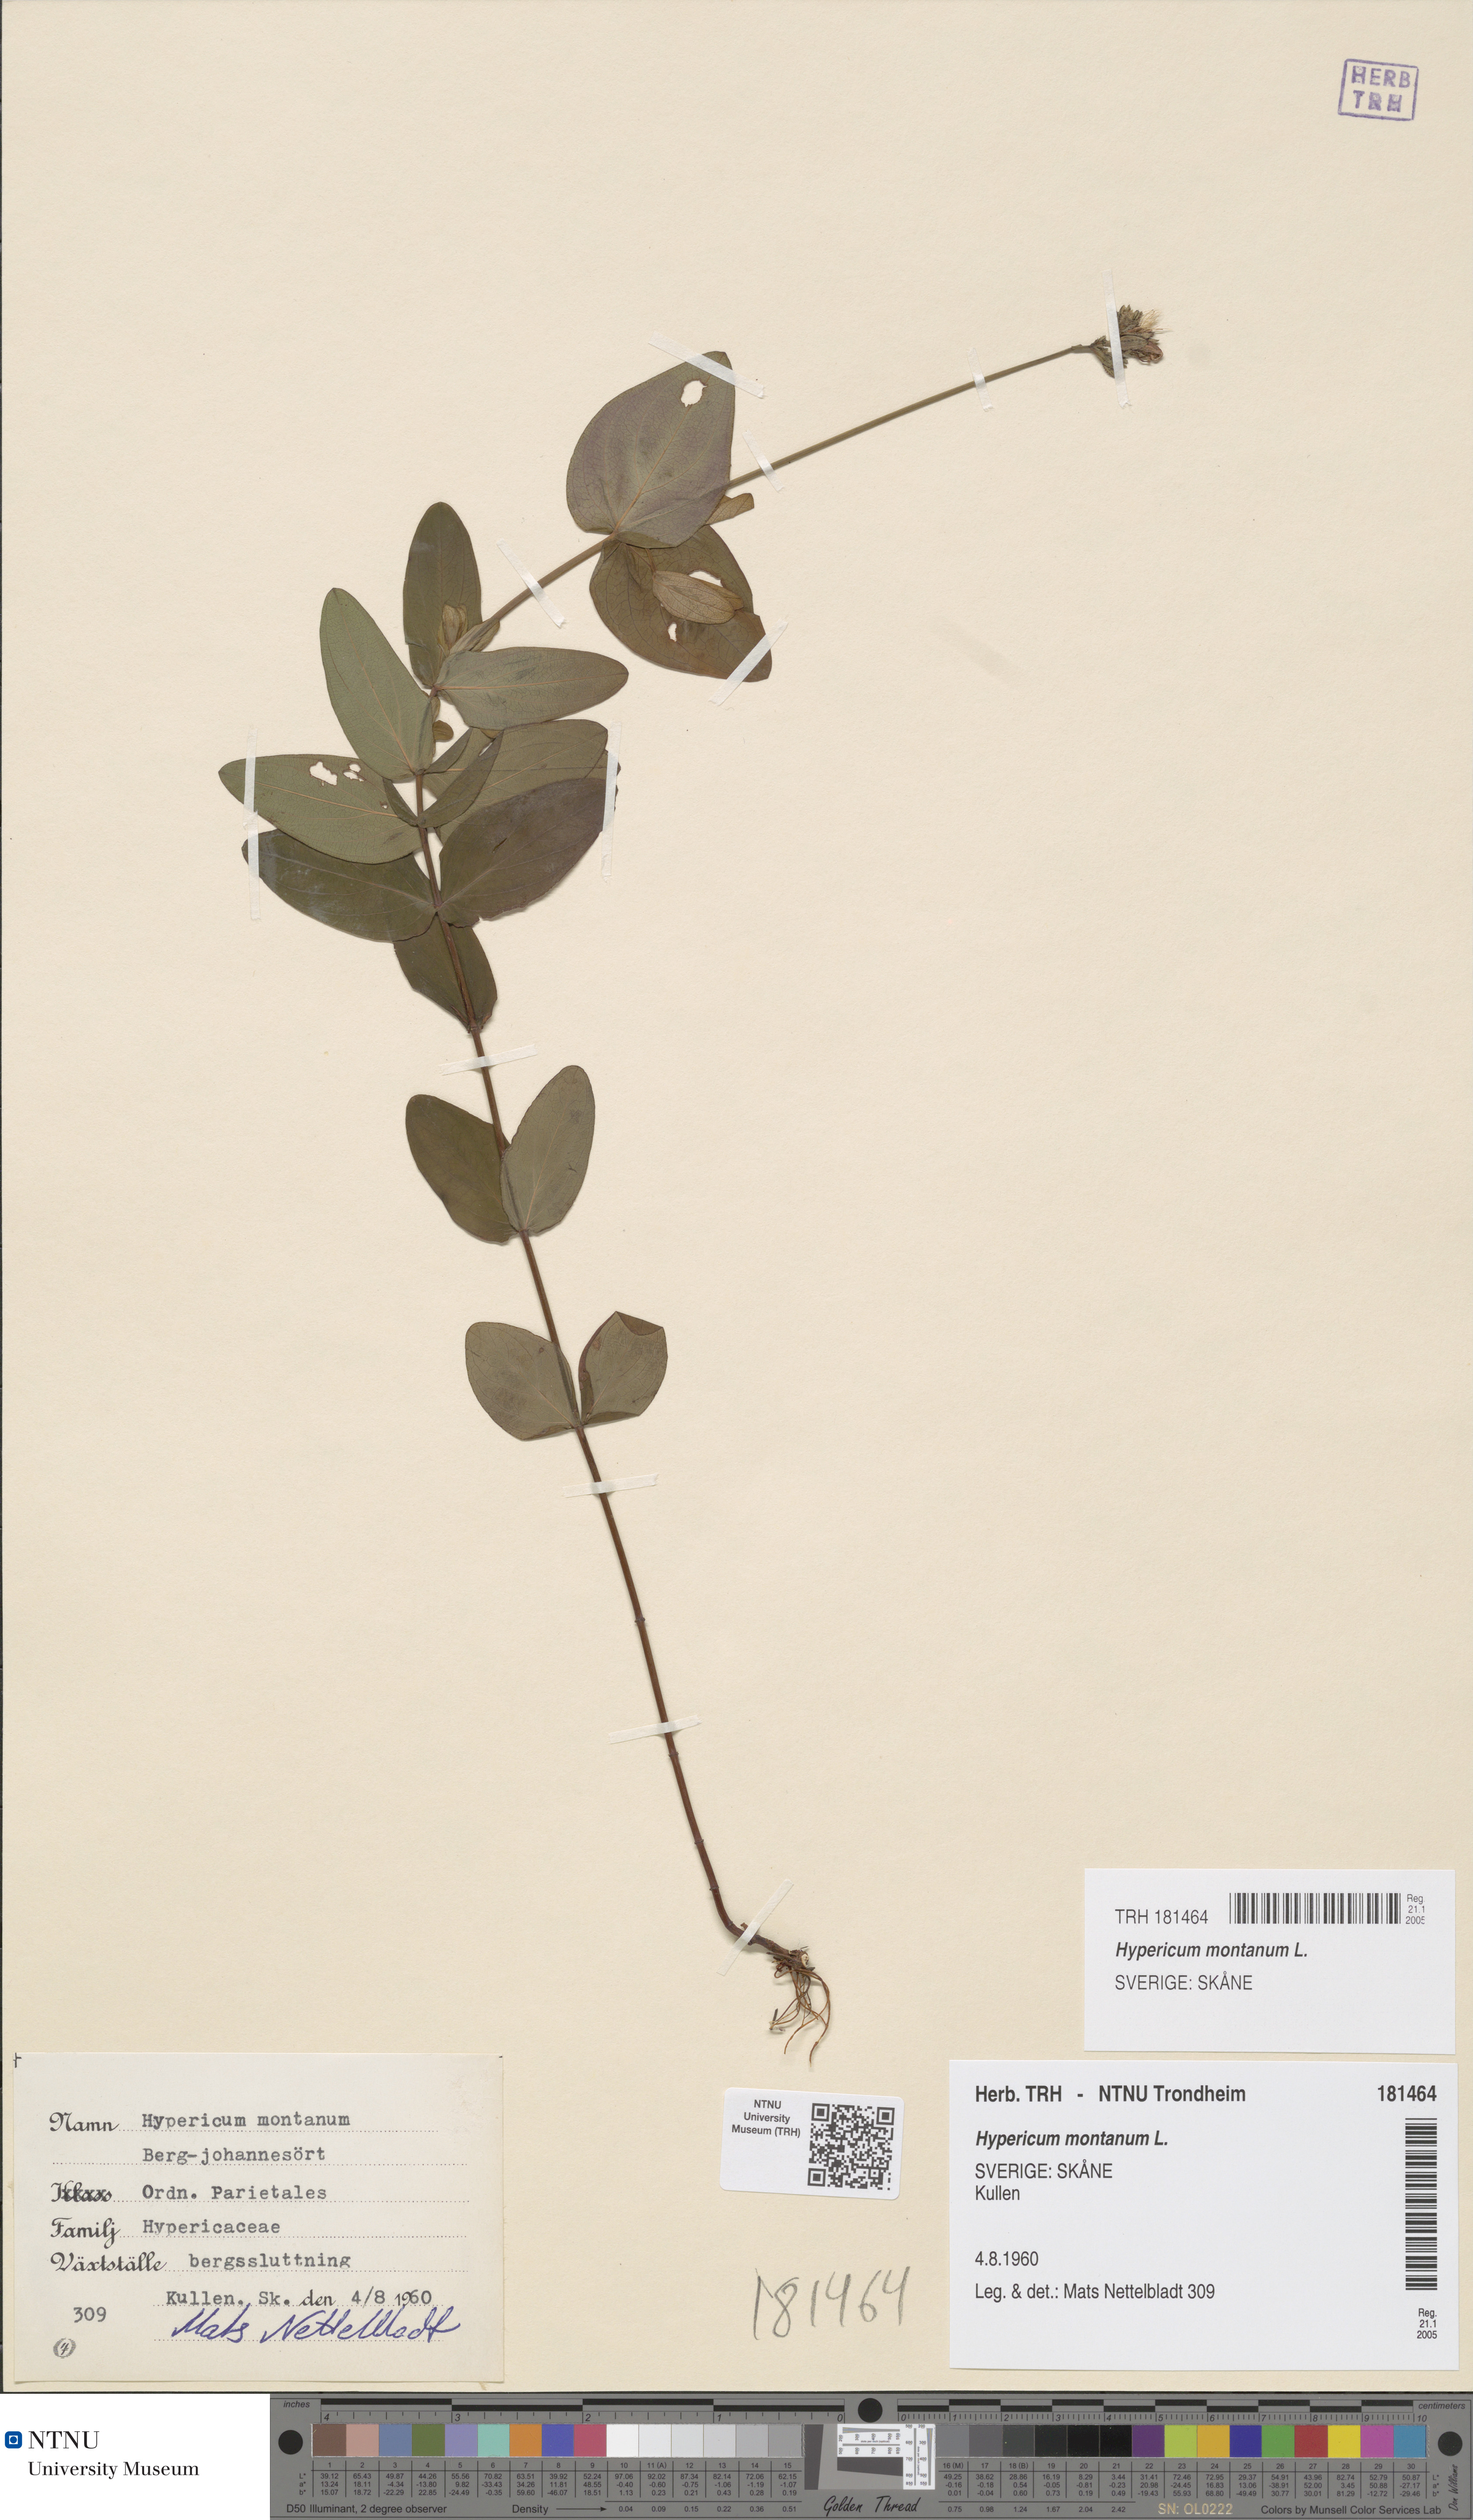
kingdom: Plantae
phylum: Tracheophyta
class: Magnoliopsida
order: Malpighiales
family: Hypericaceae
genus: Hypericum
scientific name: Hypericum montanum
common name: Pale st. john's-wort
